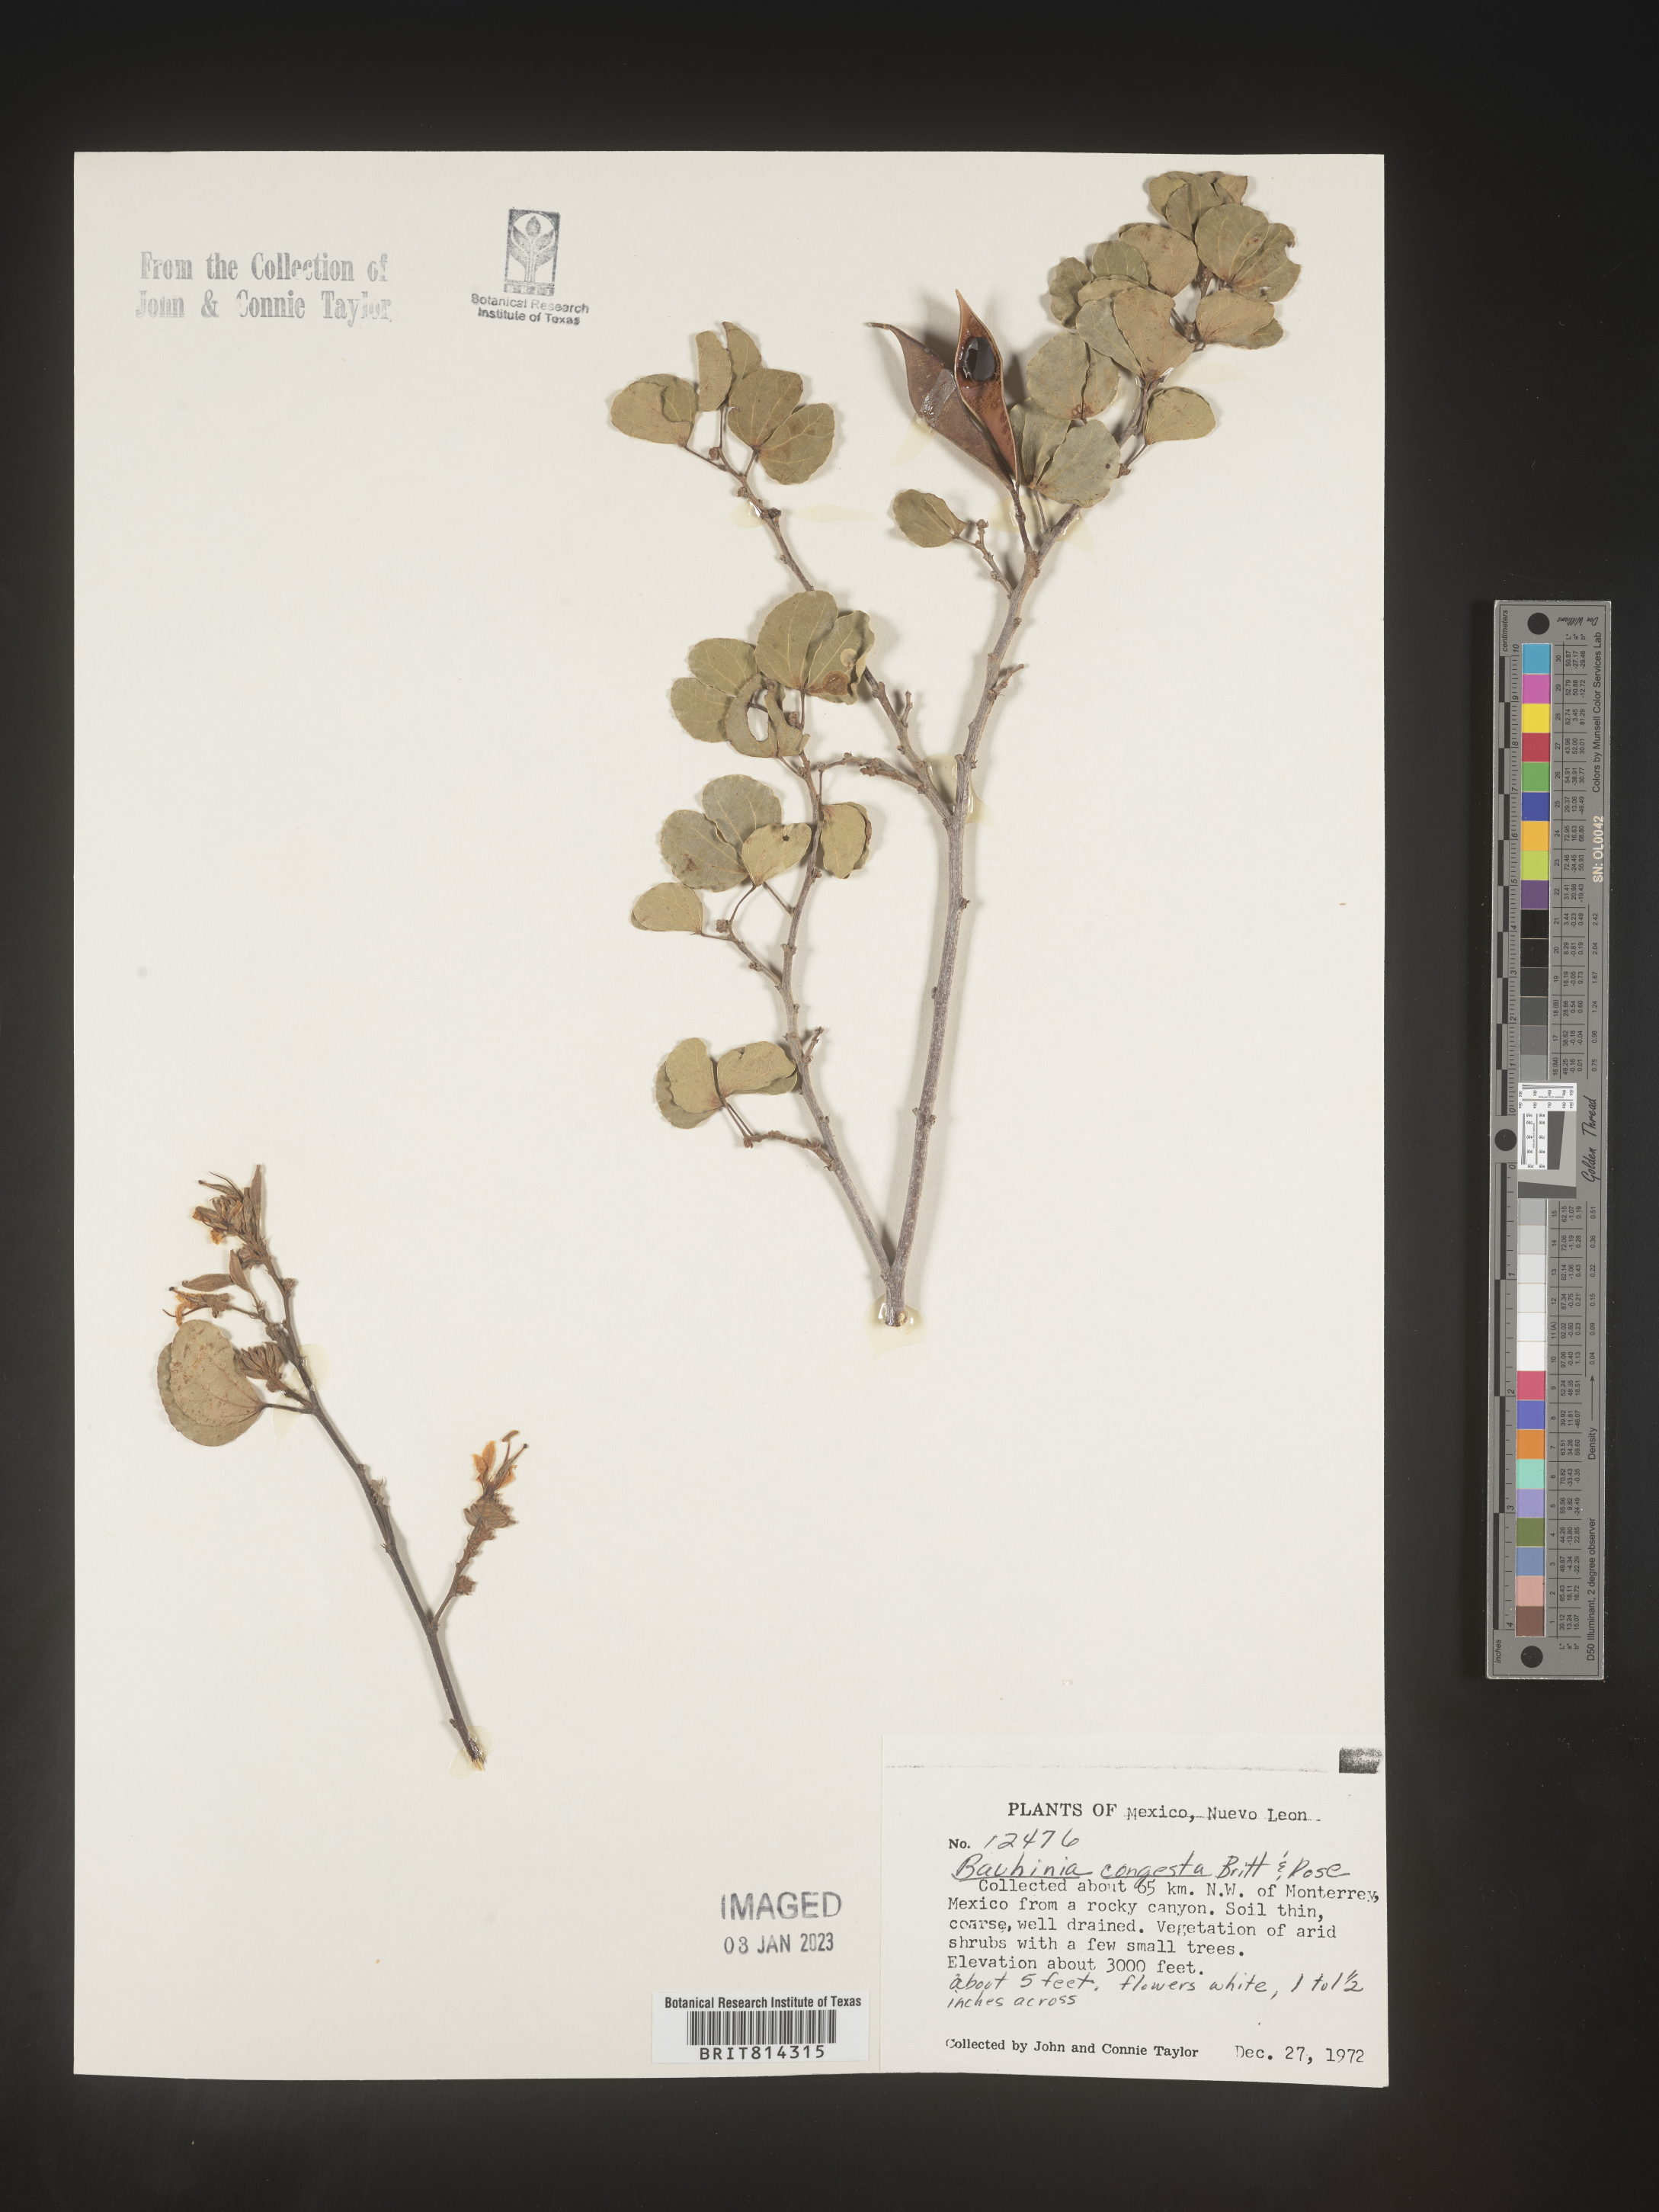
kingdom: Plantae
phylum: Tracheophyta
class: Magnoliopsida
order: Fabales
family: Fabaceae
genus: Bauhinia
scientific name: Bauhinia
